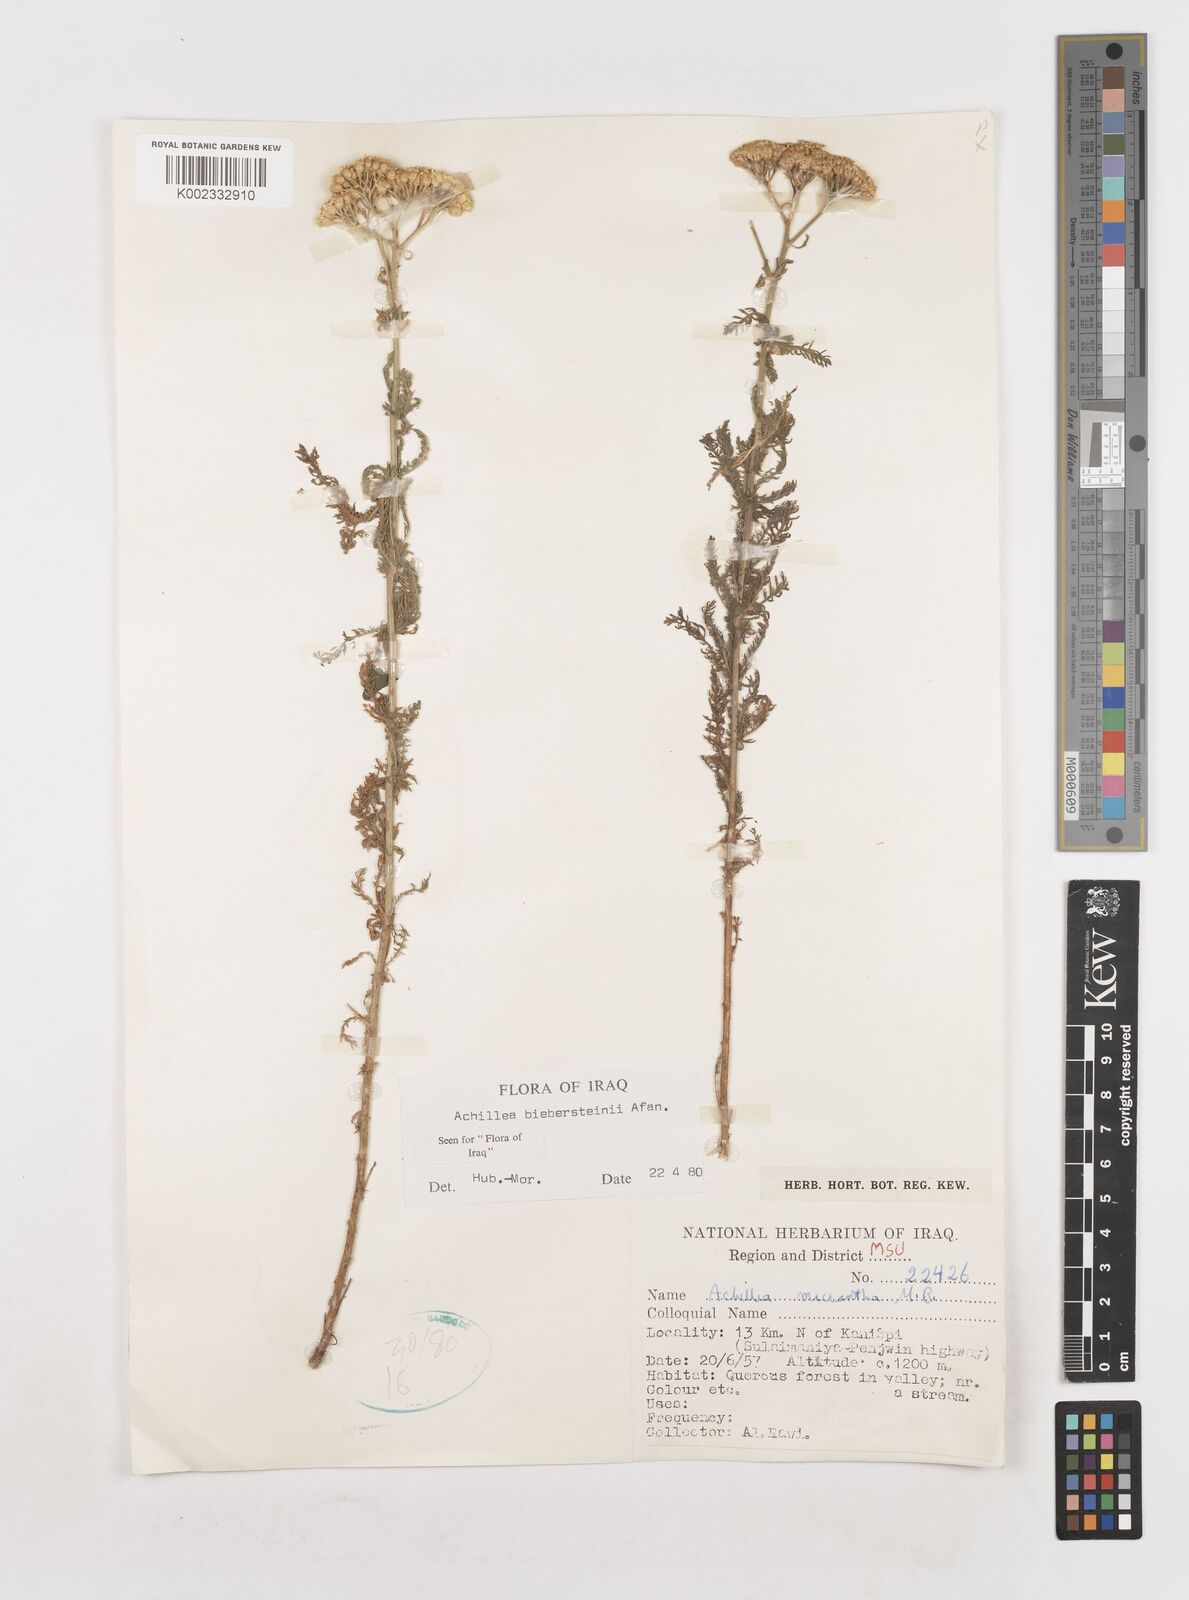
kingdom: Plantae
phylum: Tracheophyta
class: Magnoliopsida
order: Asterales
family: Asteraceae
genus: Achillea
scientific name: Achillea arabica
